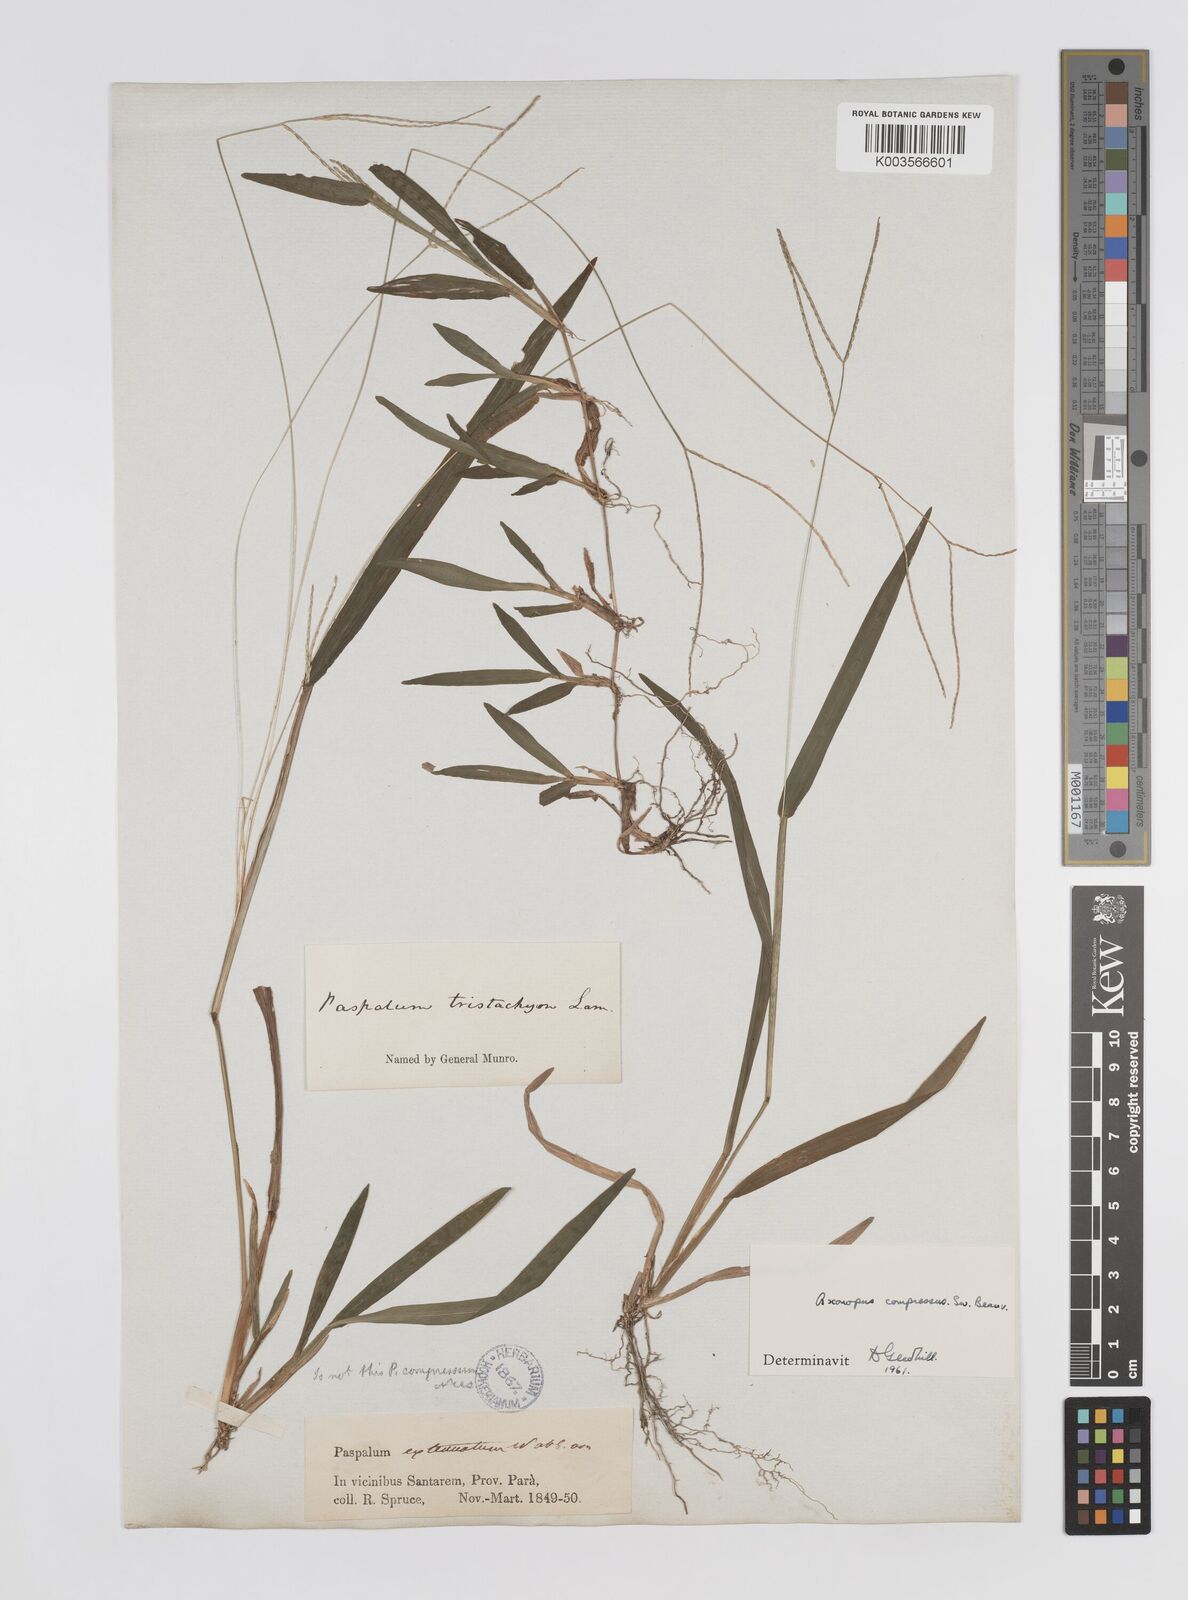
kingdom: Plantae
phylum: Tracheophyta
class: Liliopsida
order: Poales
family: Poaceae
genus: Axonopus
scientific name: Axonopus compressus
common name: American carpet grass
